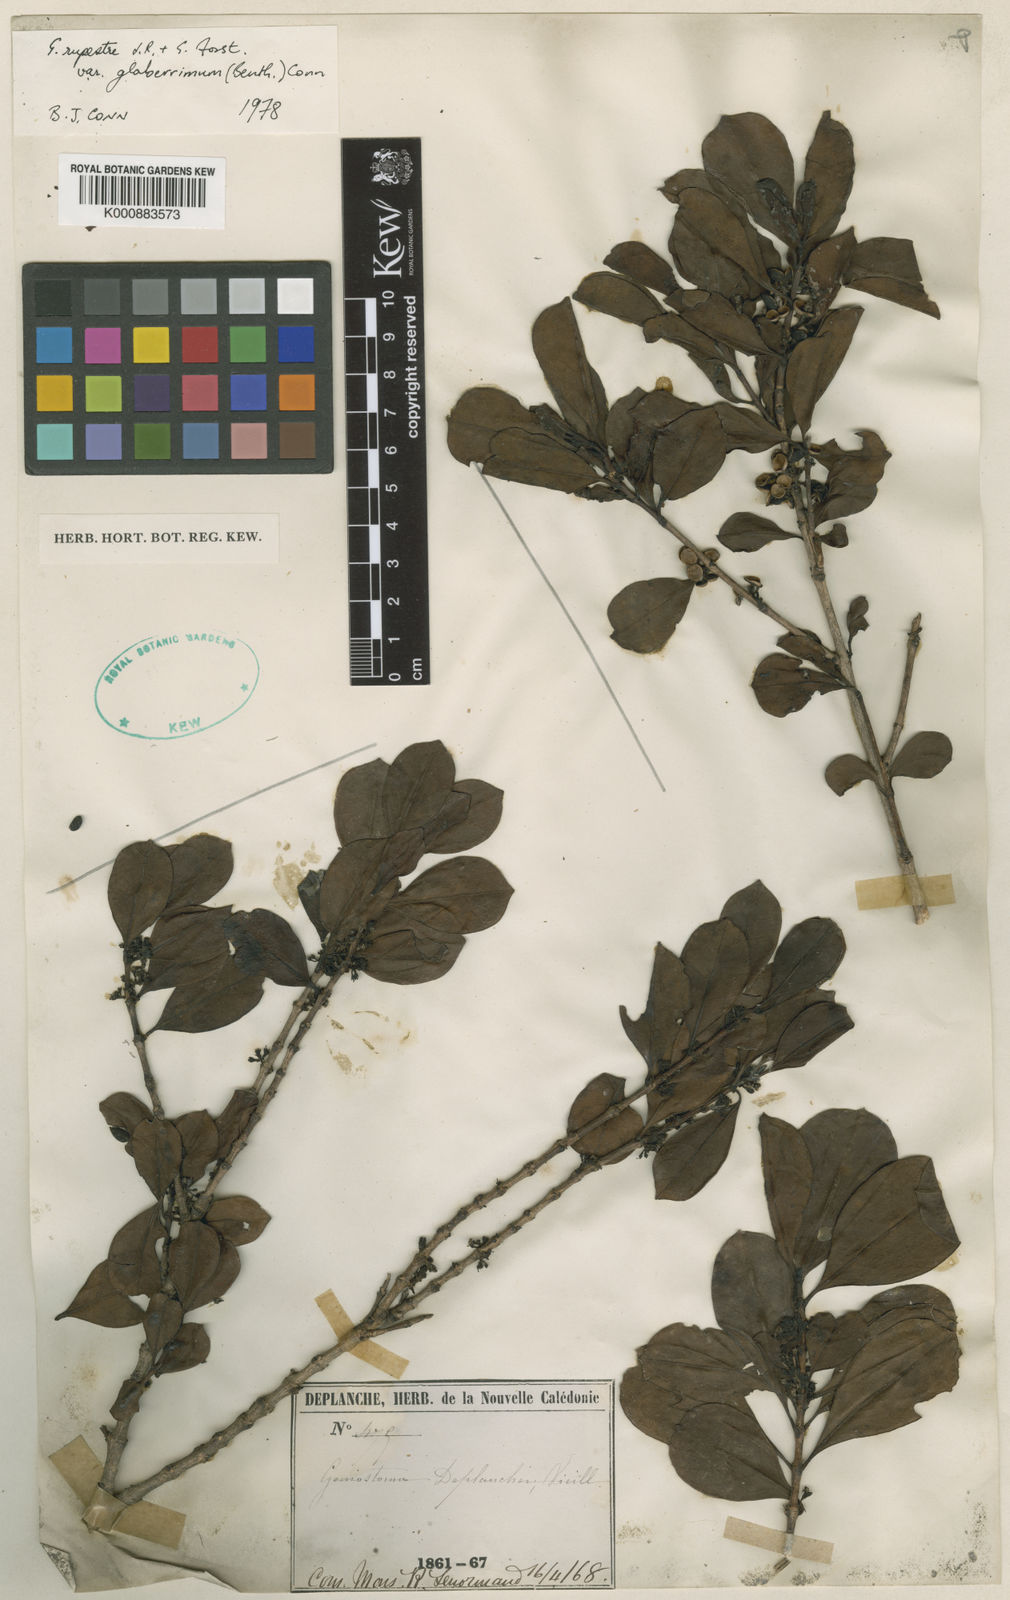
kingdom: Plantae
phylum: Tracheophyta
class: Magnoliopsida
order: Gentianales
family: Loganiaceae
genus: Geniostoma
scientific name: Geniostoma rupestre
